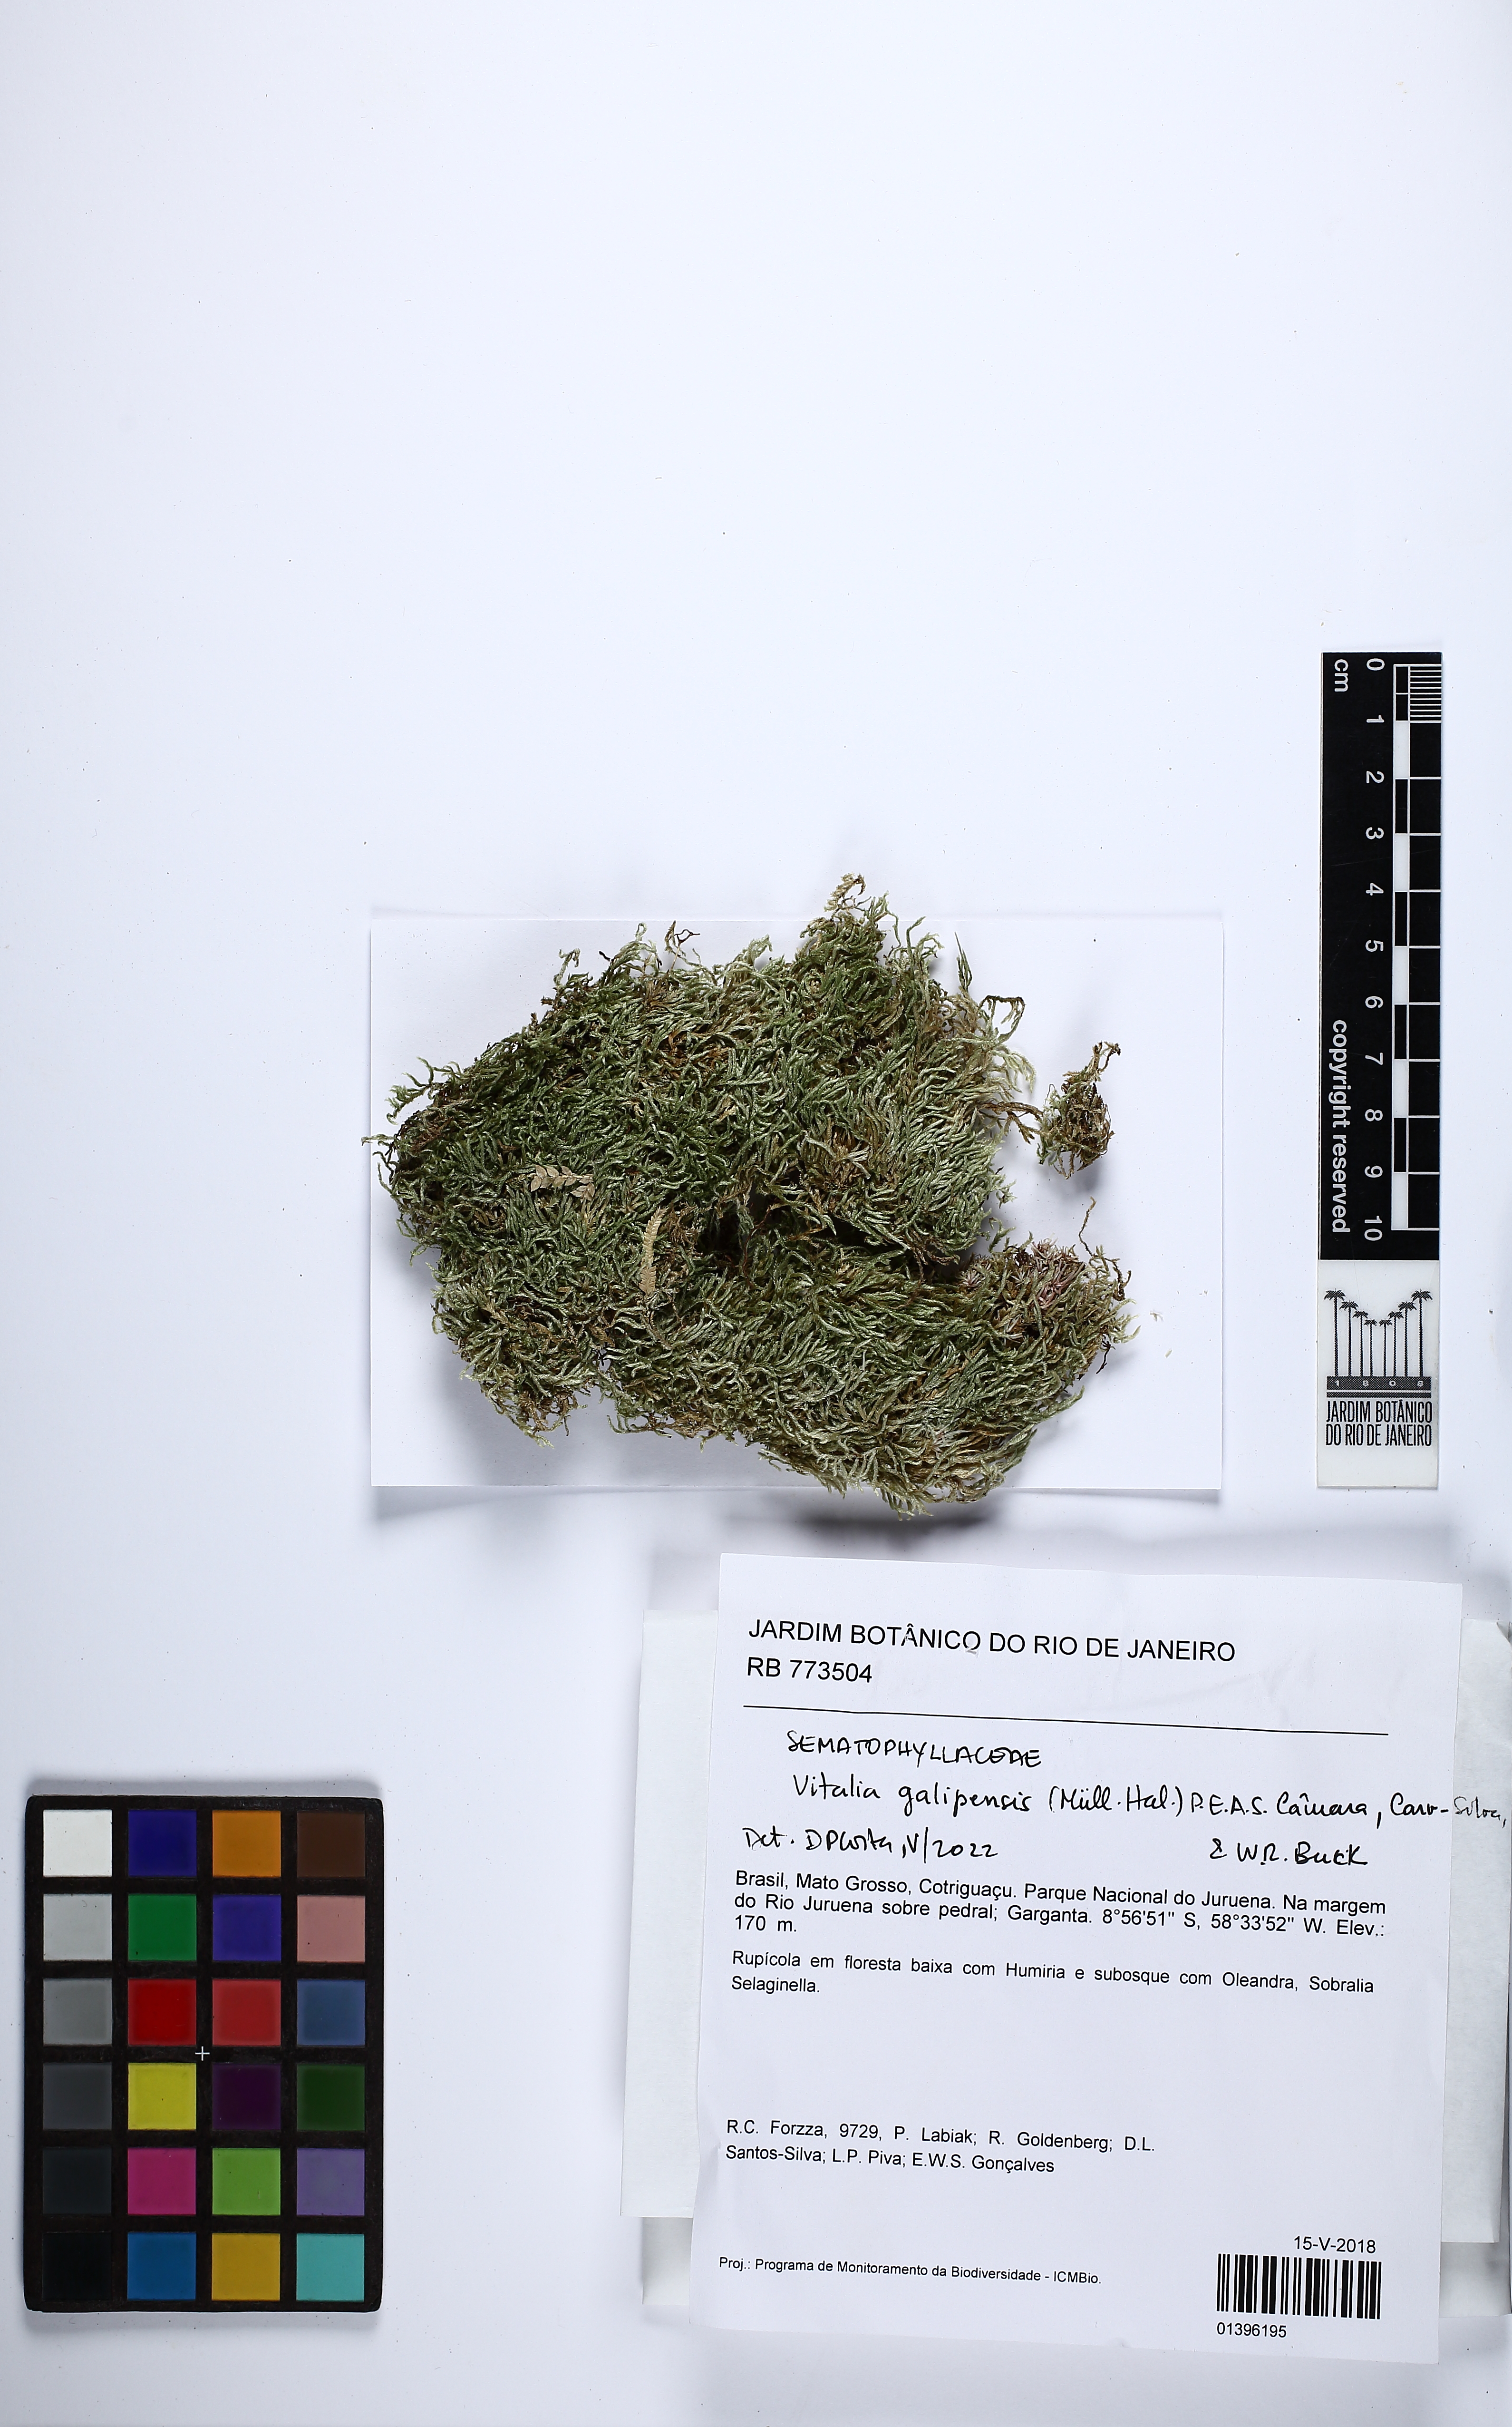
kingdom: Plantae
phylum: Bryophyta
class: Bryopsida
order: Hypnales
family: Sematophyllaceae
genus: Jirivanaea
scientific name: Jirivanaea galipensis
